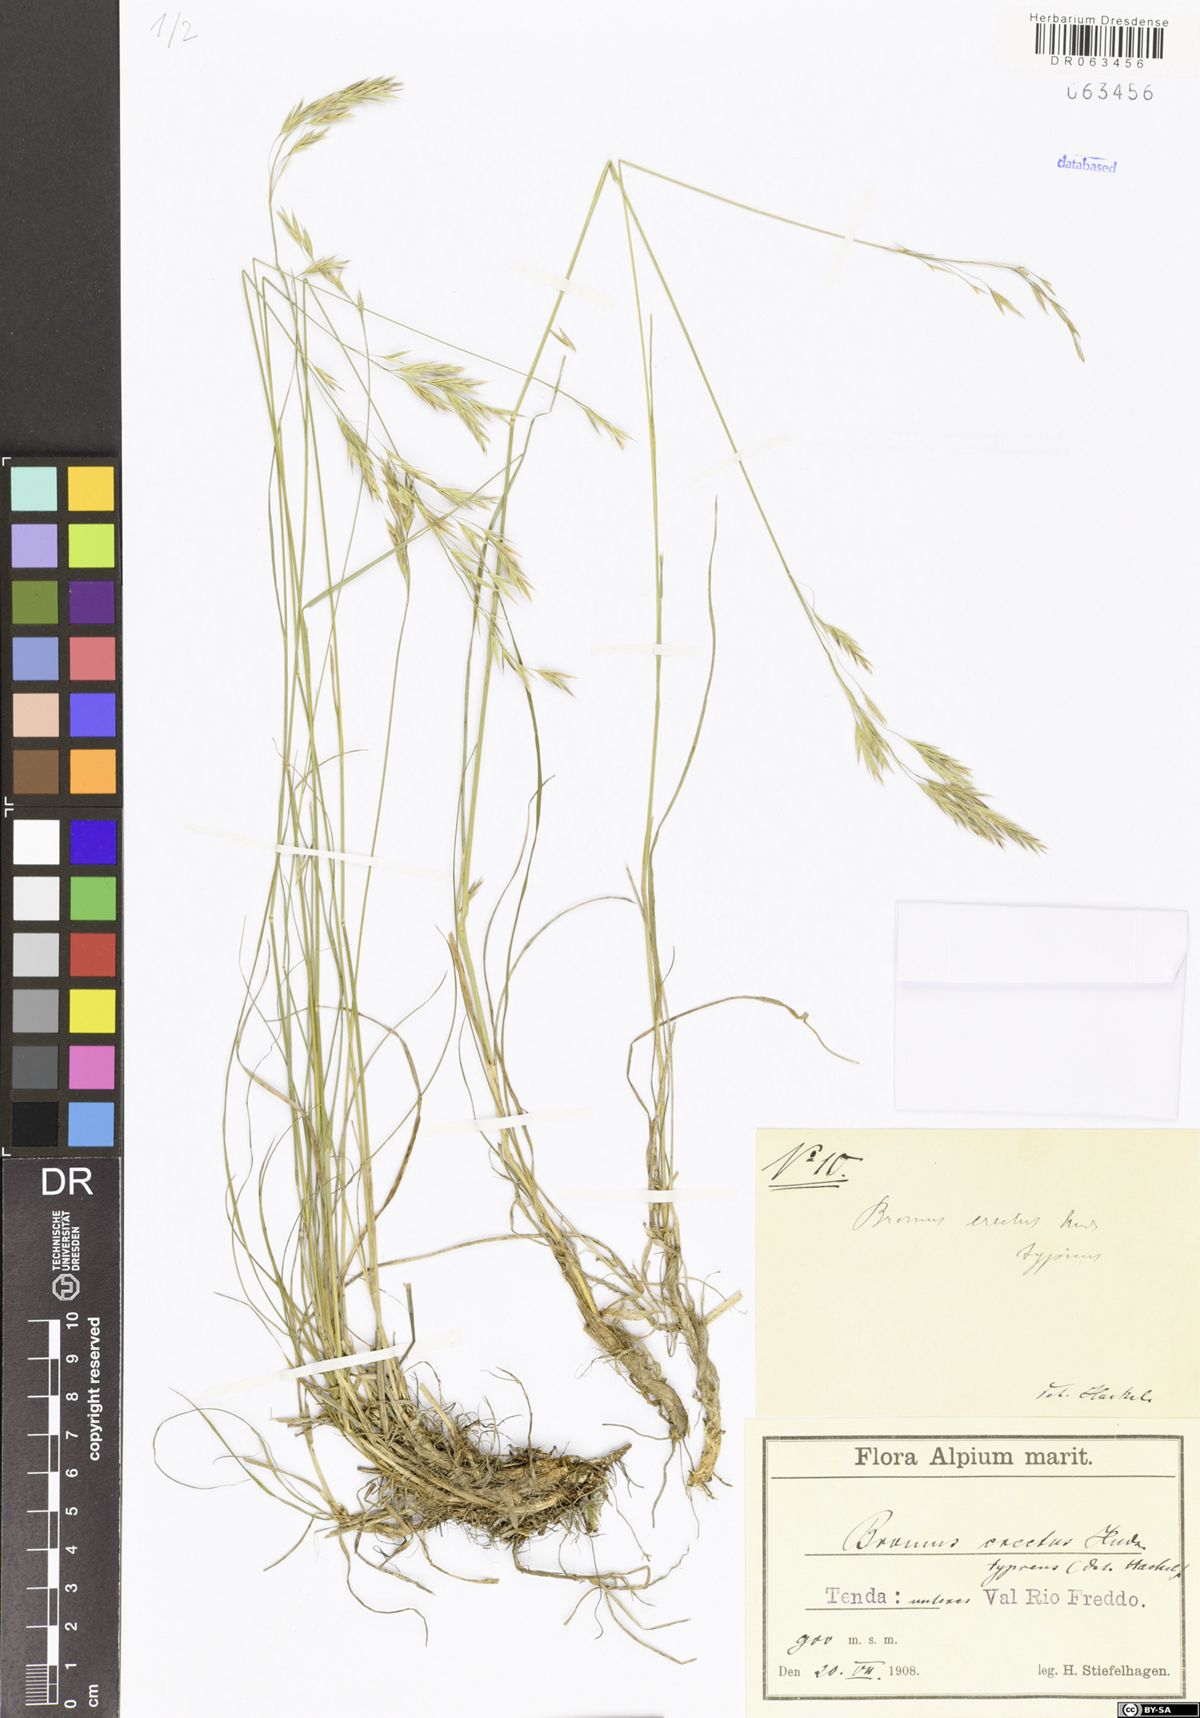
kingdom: Plantae
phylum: Tracheophyta
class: Liliopsida
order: Poales
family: Poaceae
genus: Bromus
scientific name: Bromus erectus
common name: Erect brome
